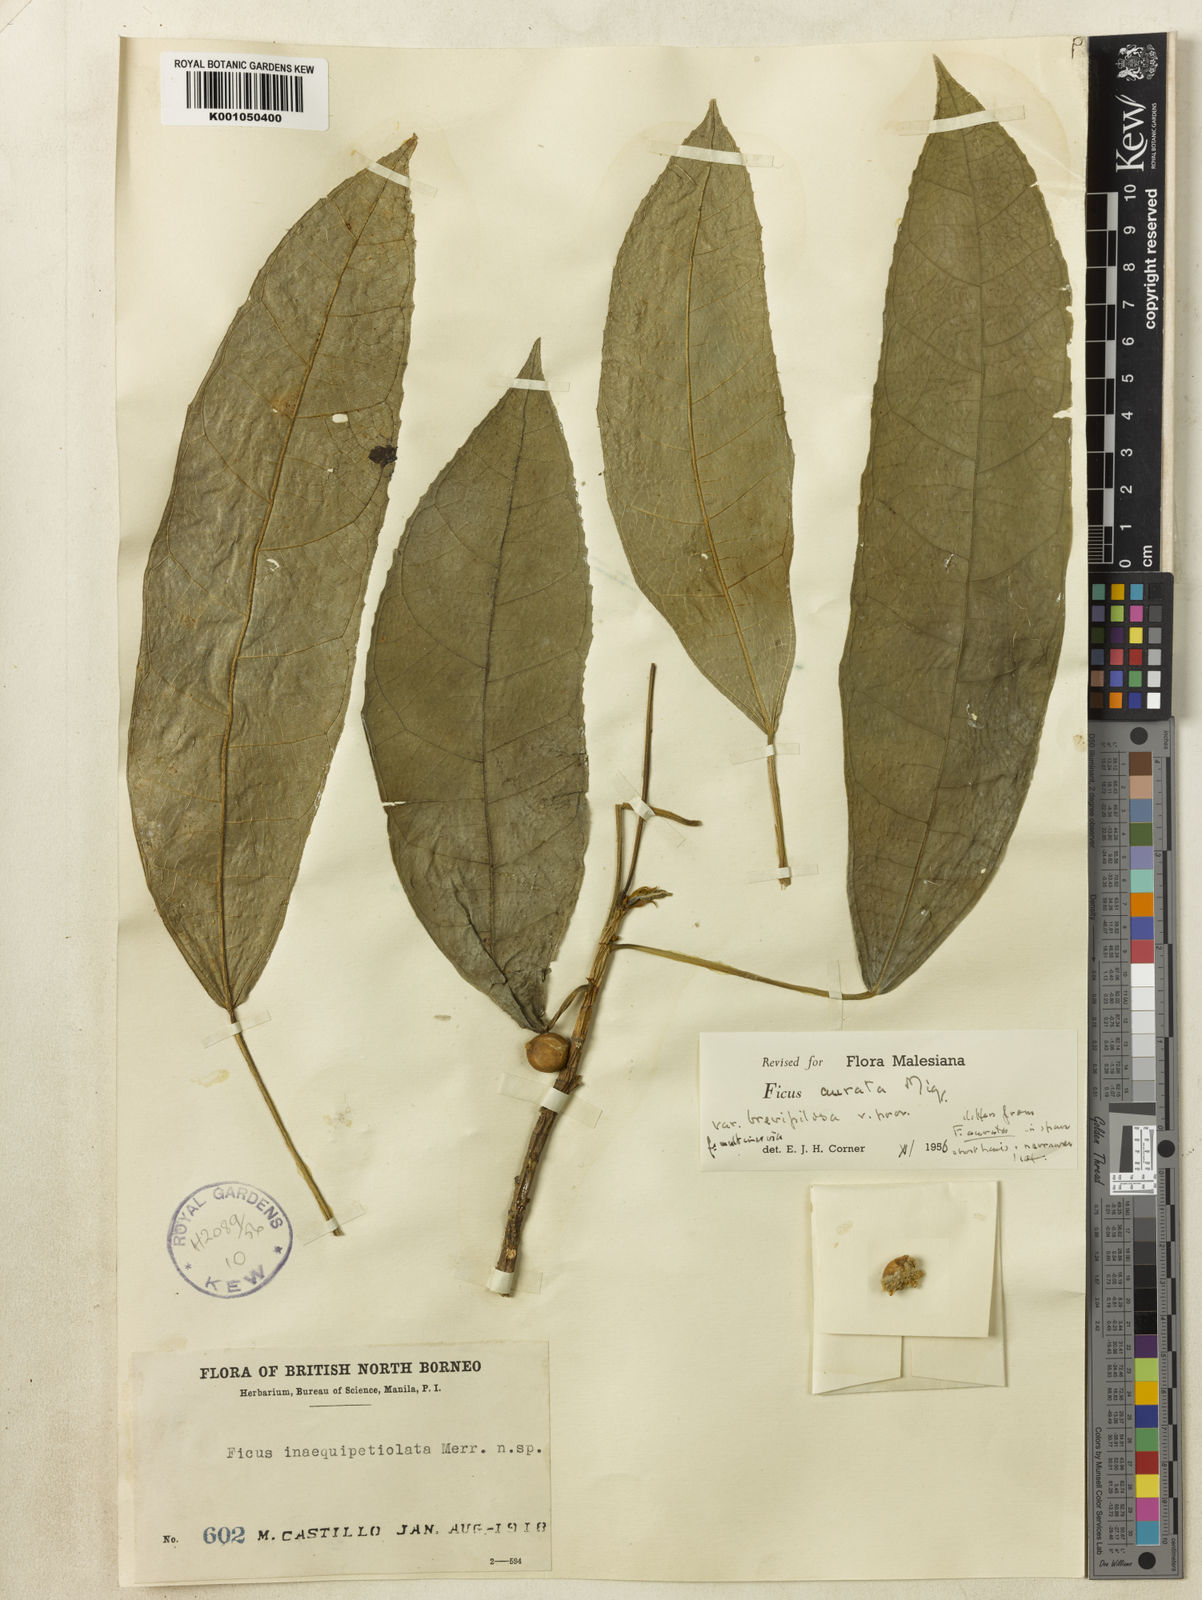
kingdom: Plantae
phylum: Tracheophyta
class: Magnoliopsida
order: Rosales
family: Moraceae
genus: Ficus
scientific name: Ficus inaequipetiolata
